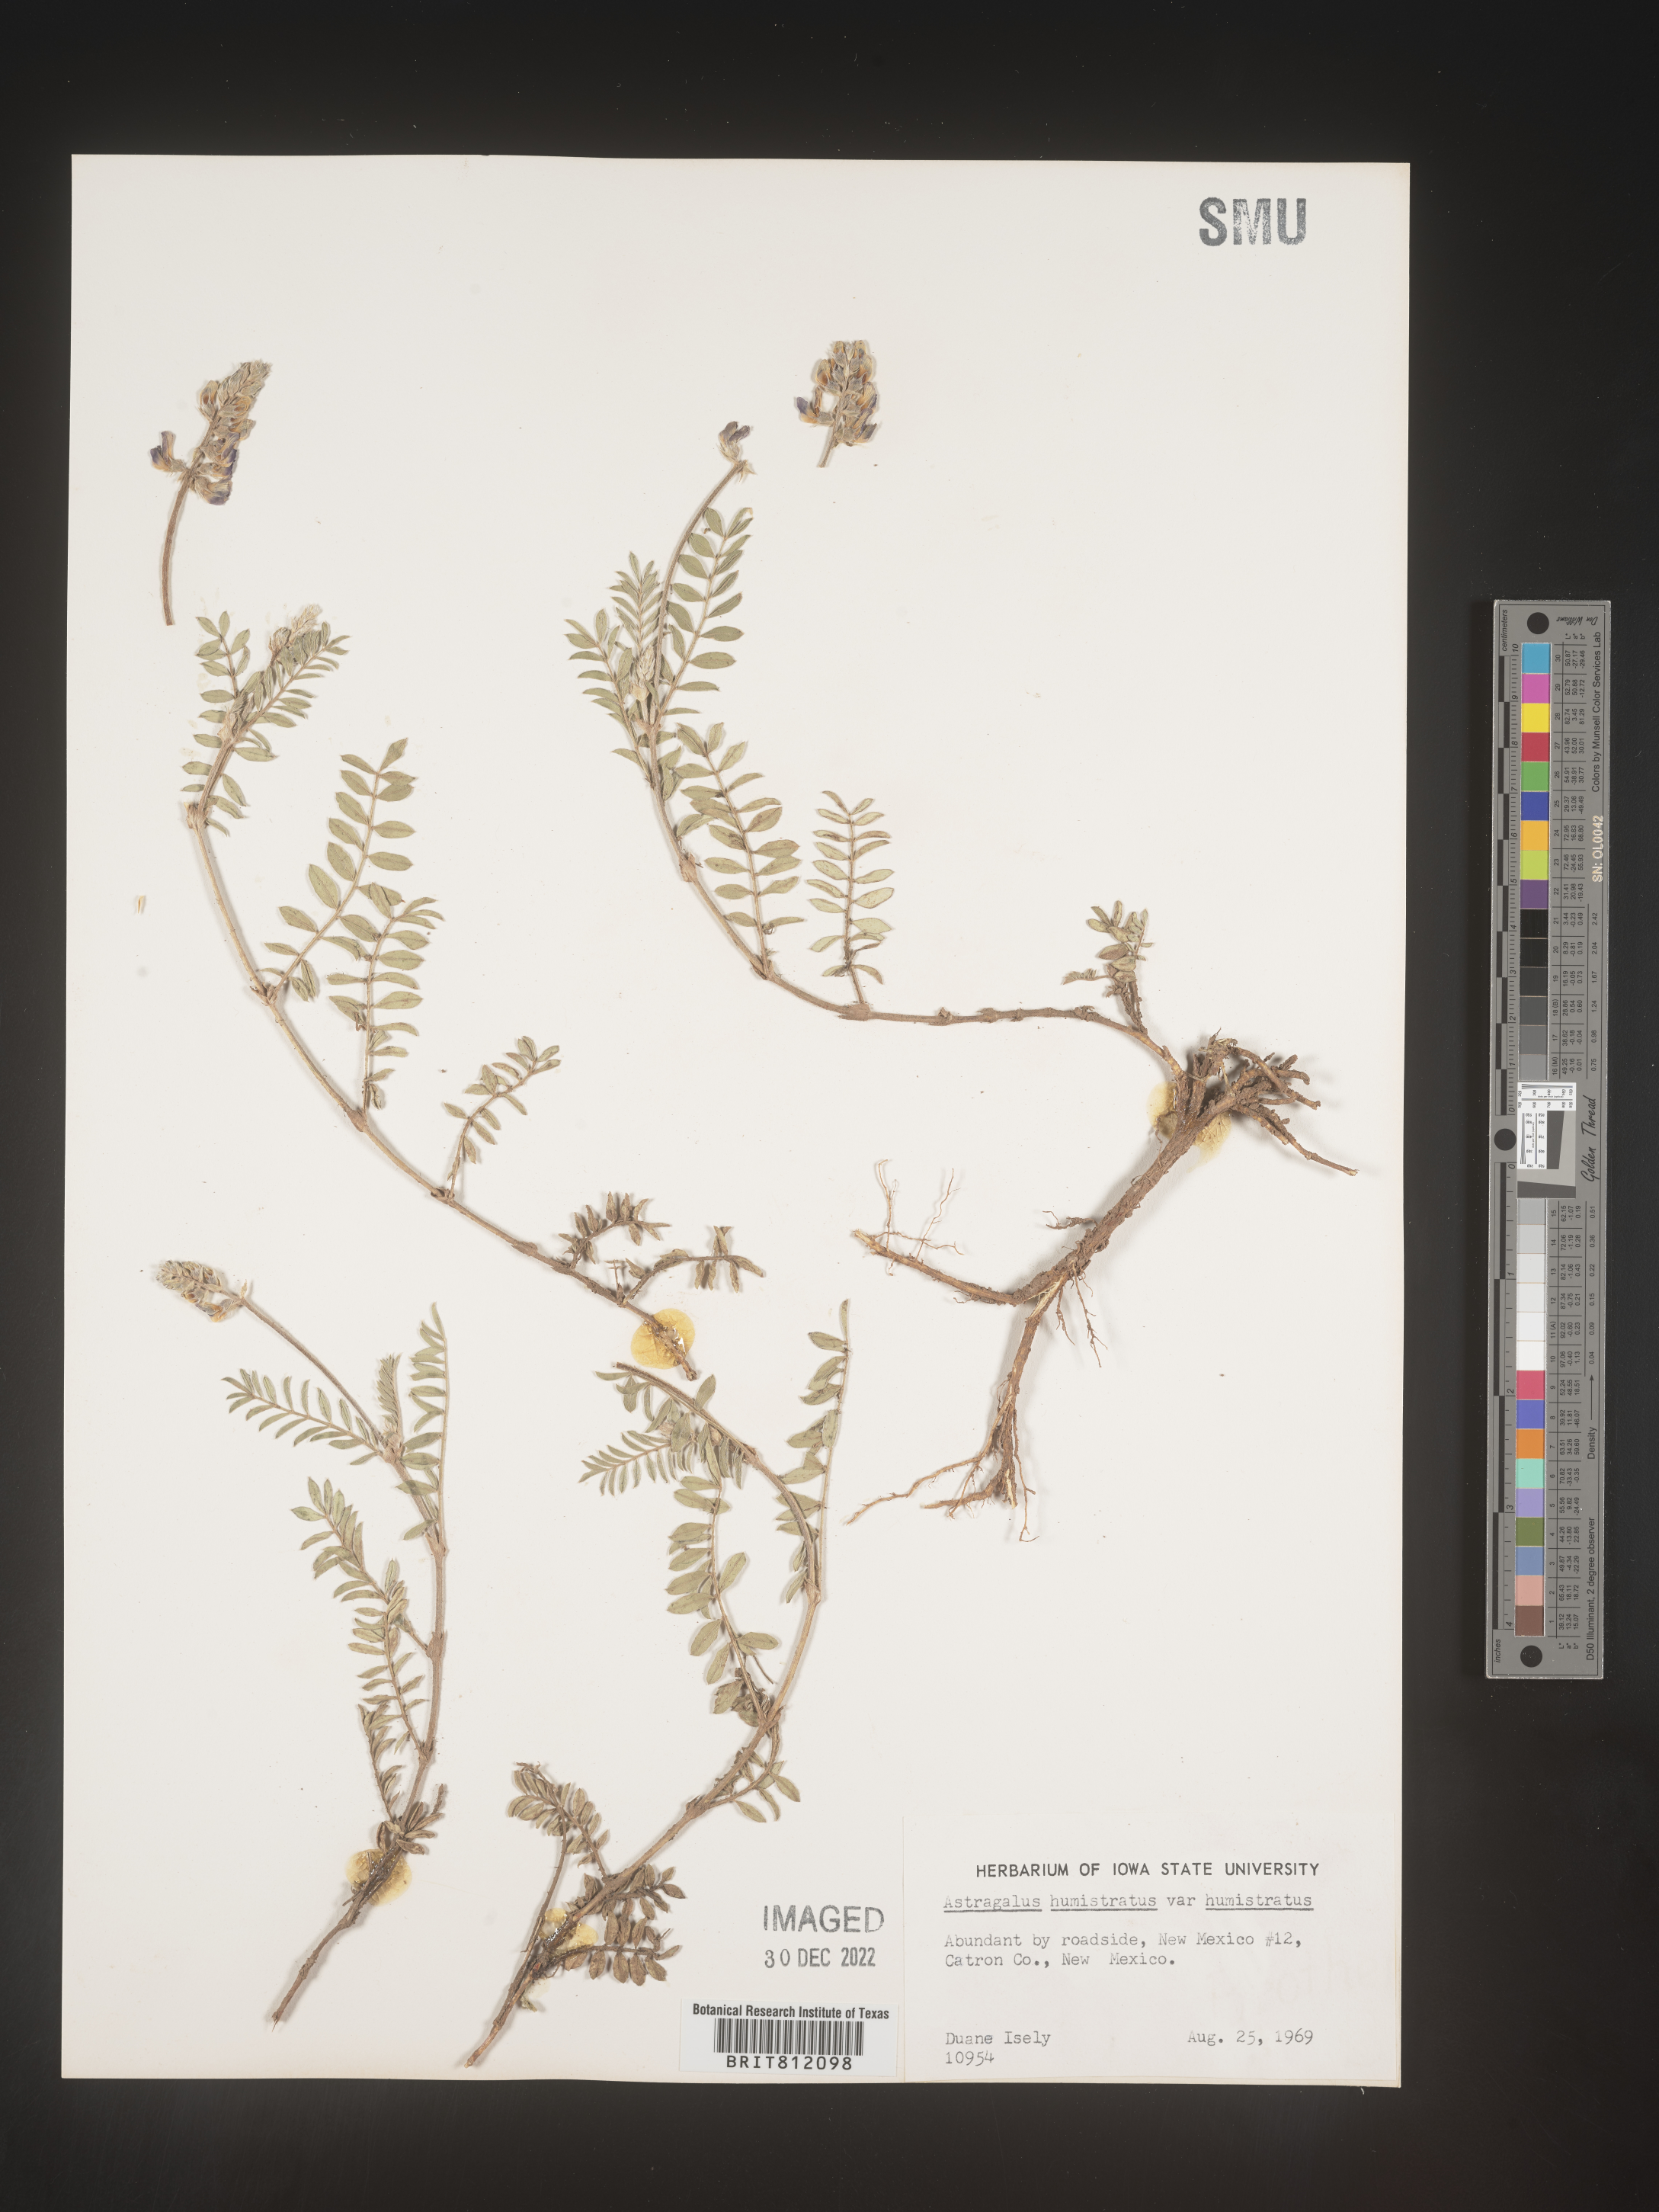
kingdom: Plantae
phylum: Tracheophyta
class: Magnoliopsida
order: Fabales
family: Fabaceae
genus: Astragalus
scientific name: Astragalus
